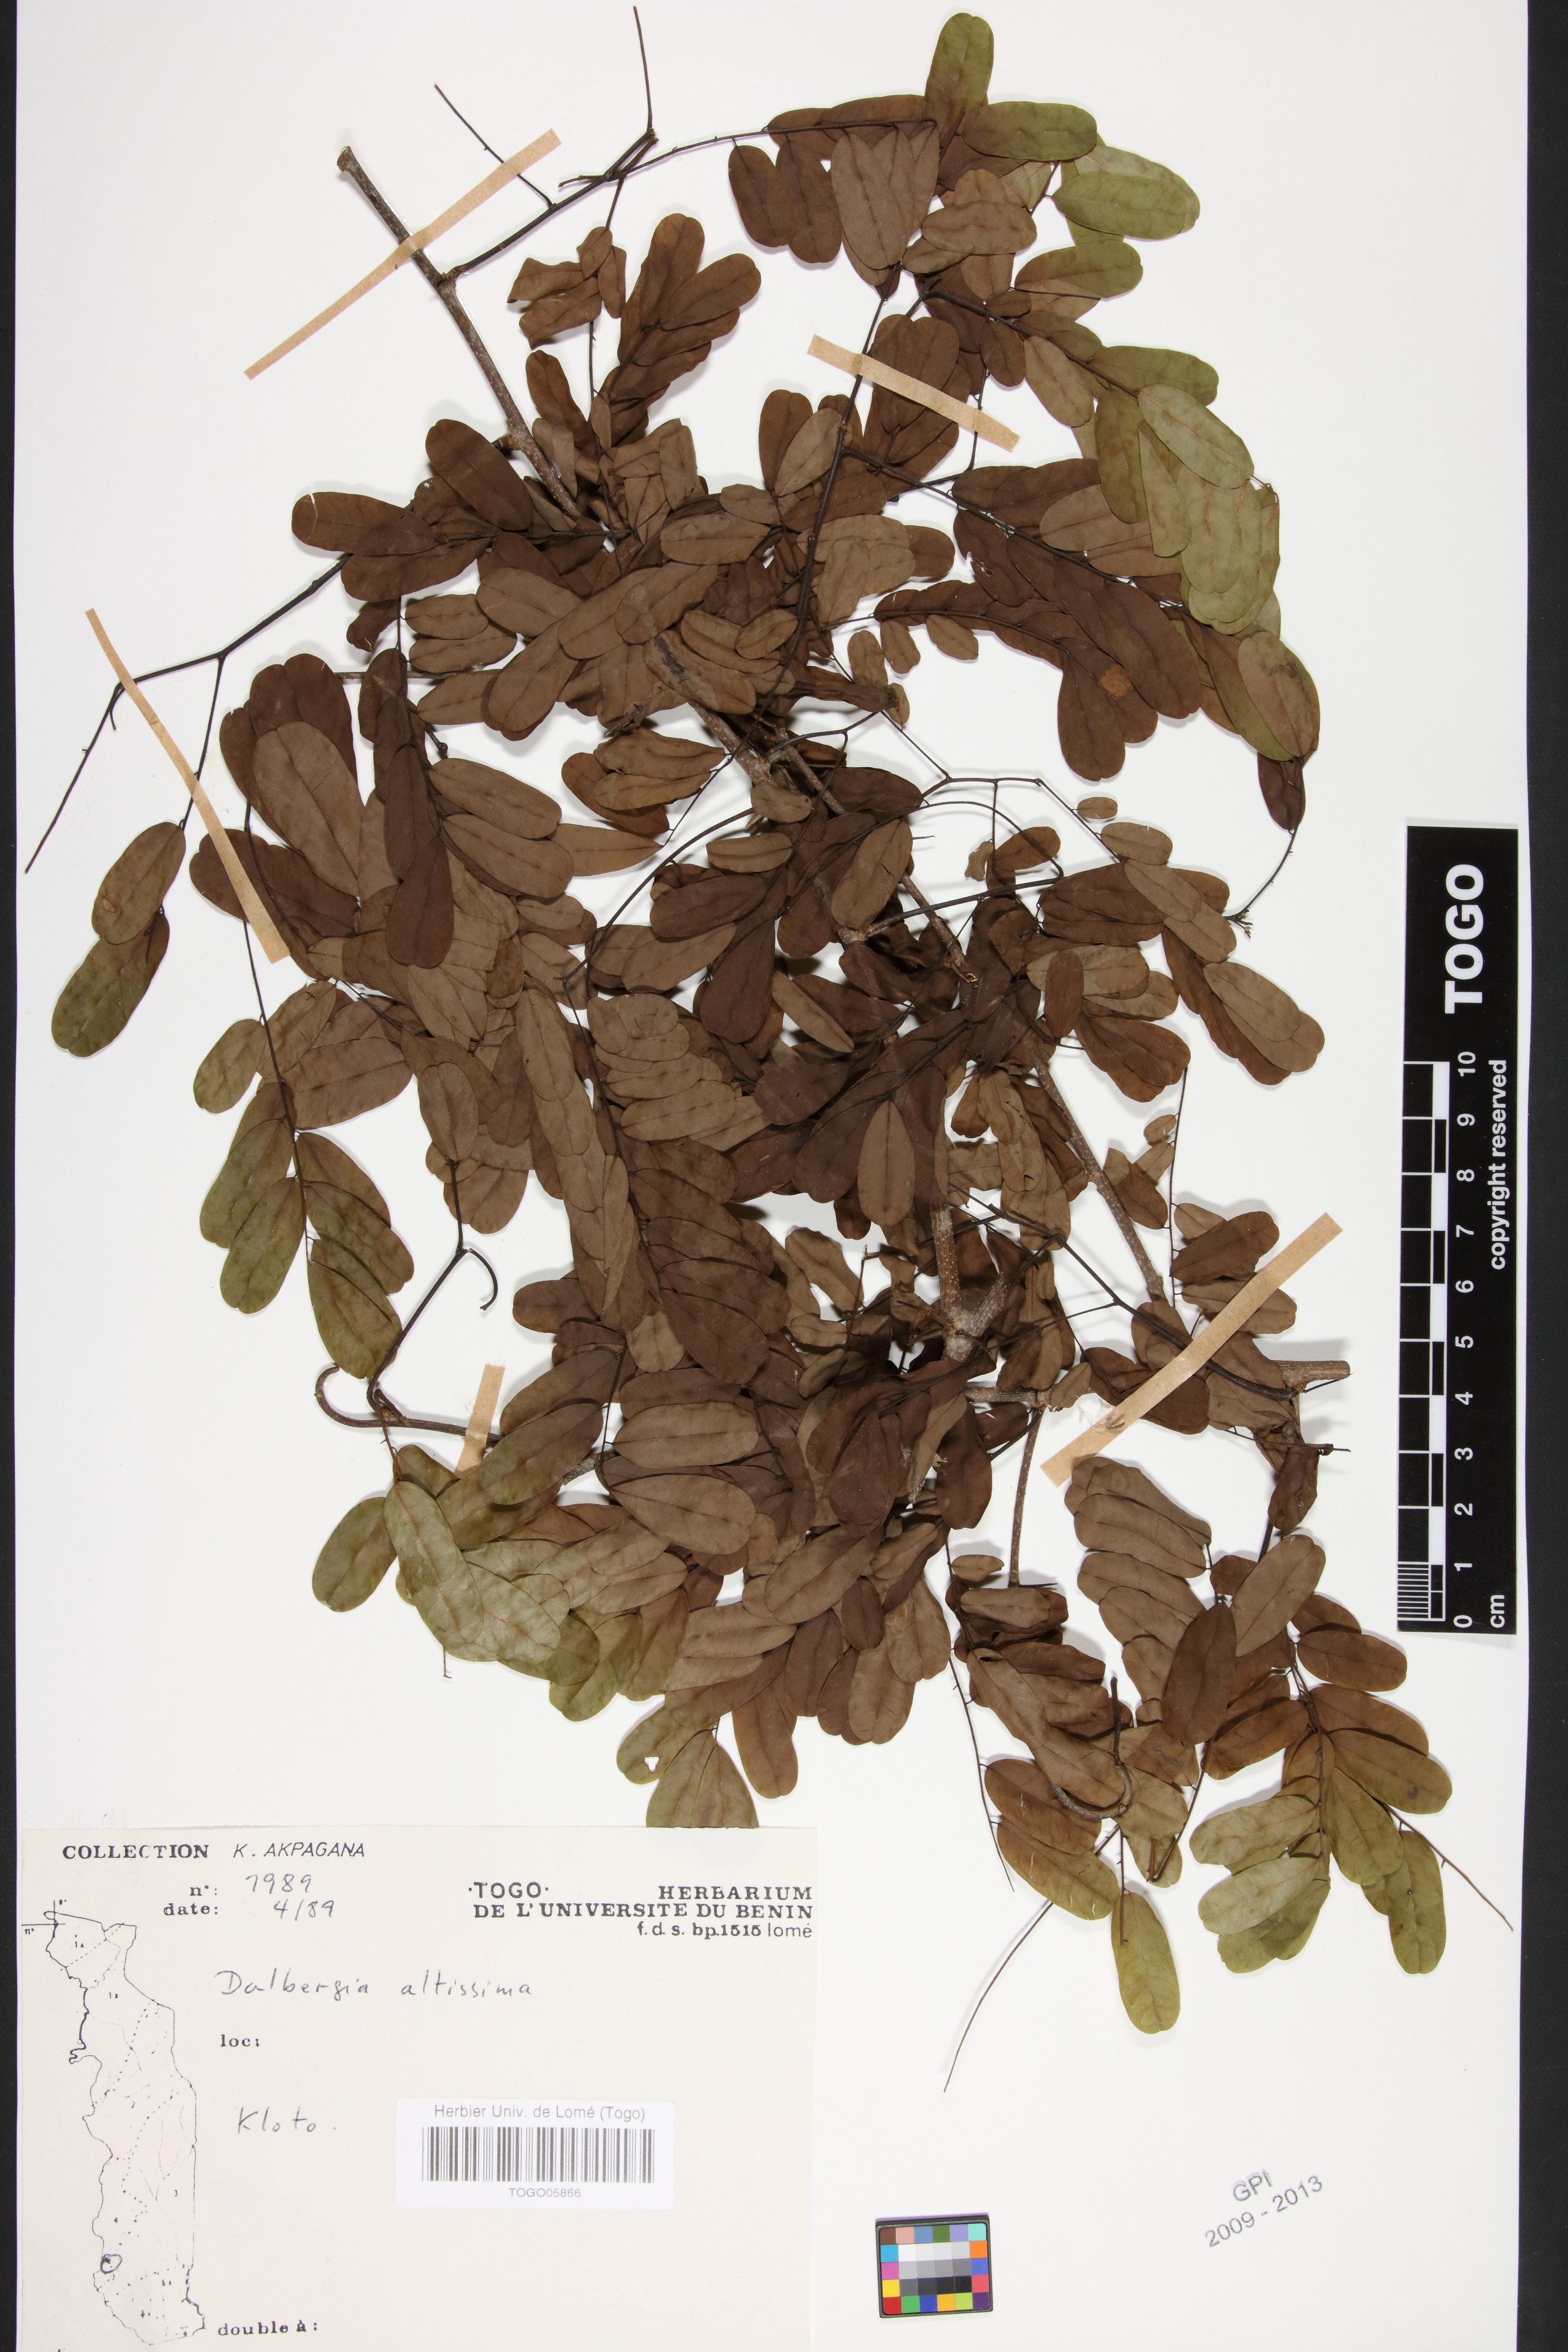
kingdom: Plantae
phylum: Tracheophyta
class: Magnoliopsida
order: Fabales
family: Fabaceae
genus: Dalbergia
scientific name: Dalbergia altissima
